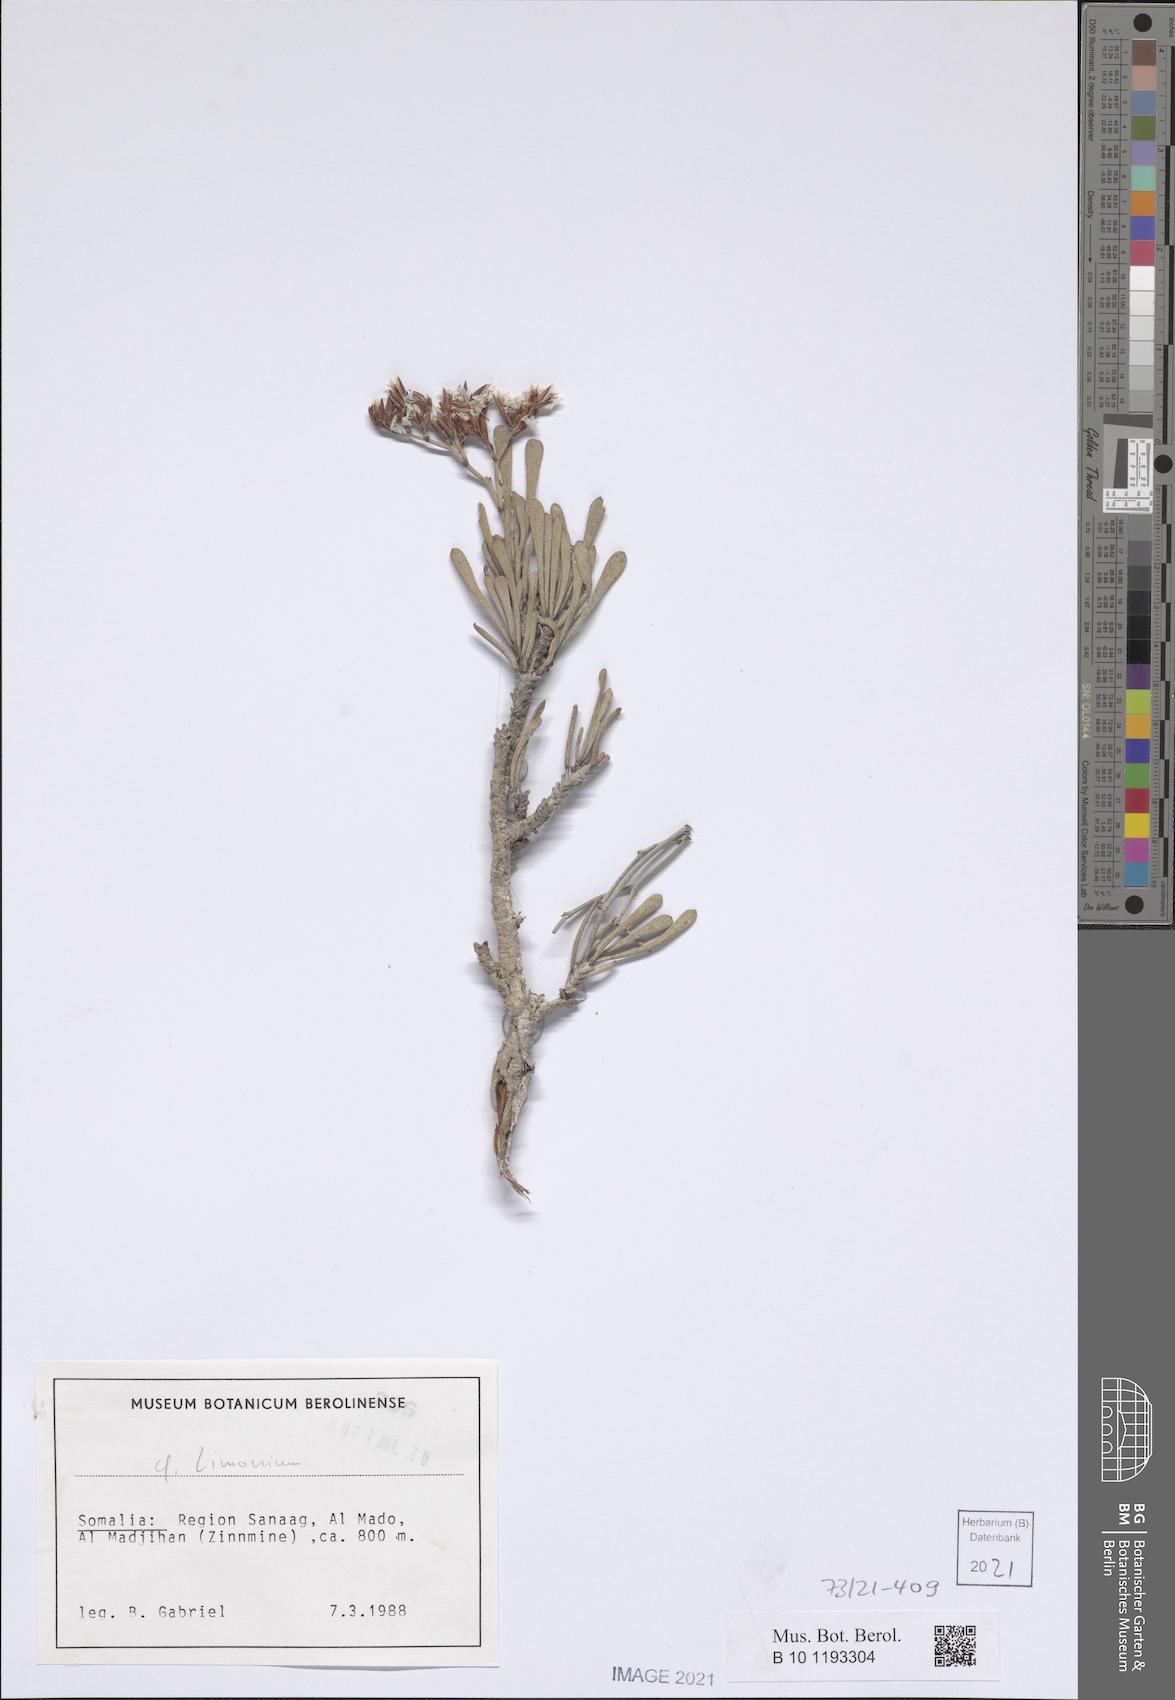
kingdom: Plantae
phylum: Tracheophyta
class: Magnoliopsida
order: Caryophyllales
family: Plumbaginaceae
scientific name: Plumbaginaceae
